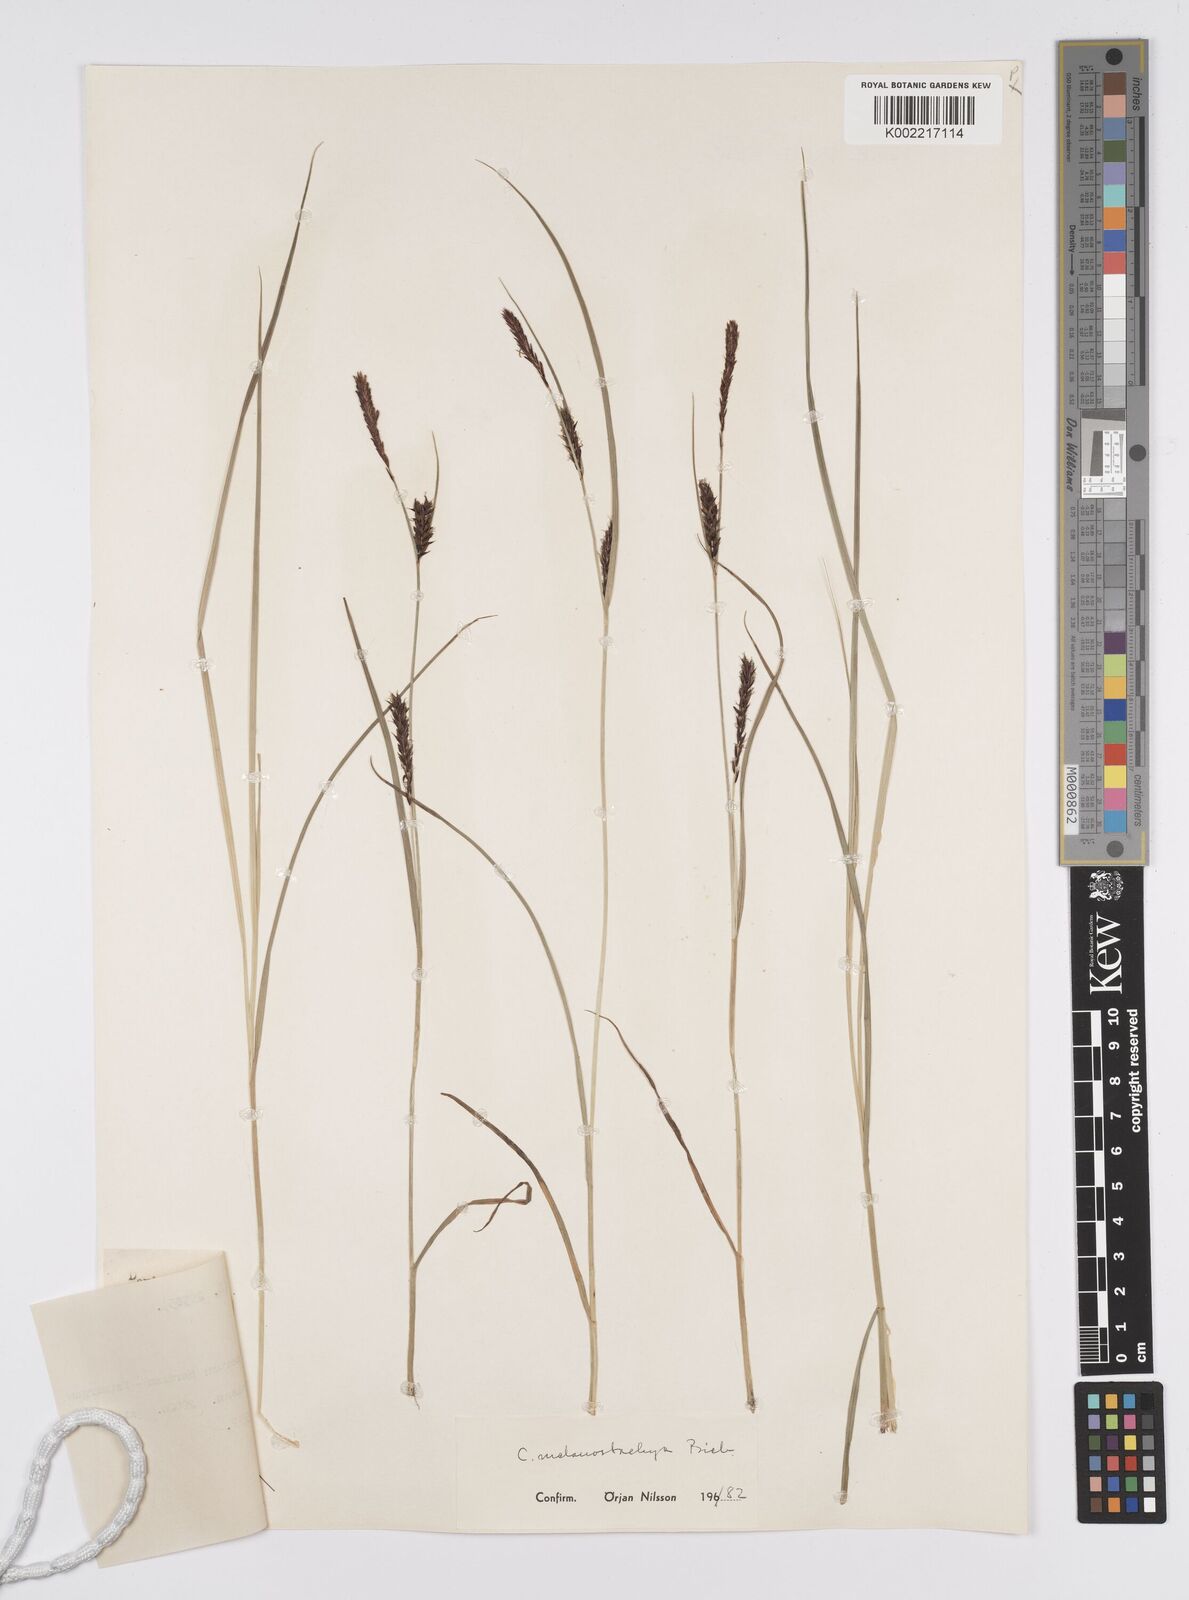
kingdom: Plantae
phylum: Tracheophyta
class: Liliopsida
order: Poales
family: Cyperaceae
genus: Carex
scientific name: Carex melanostachya
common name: Black-spiked sedge
